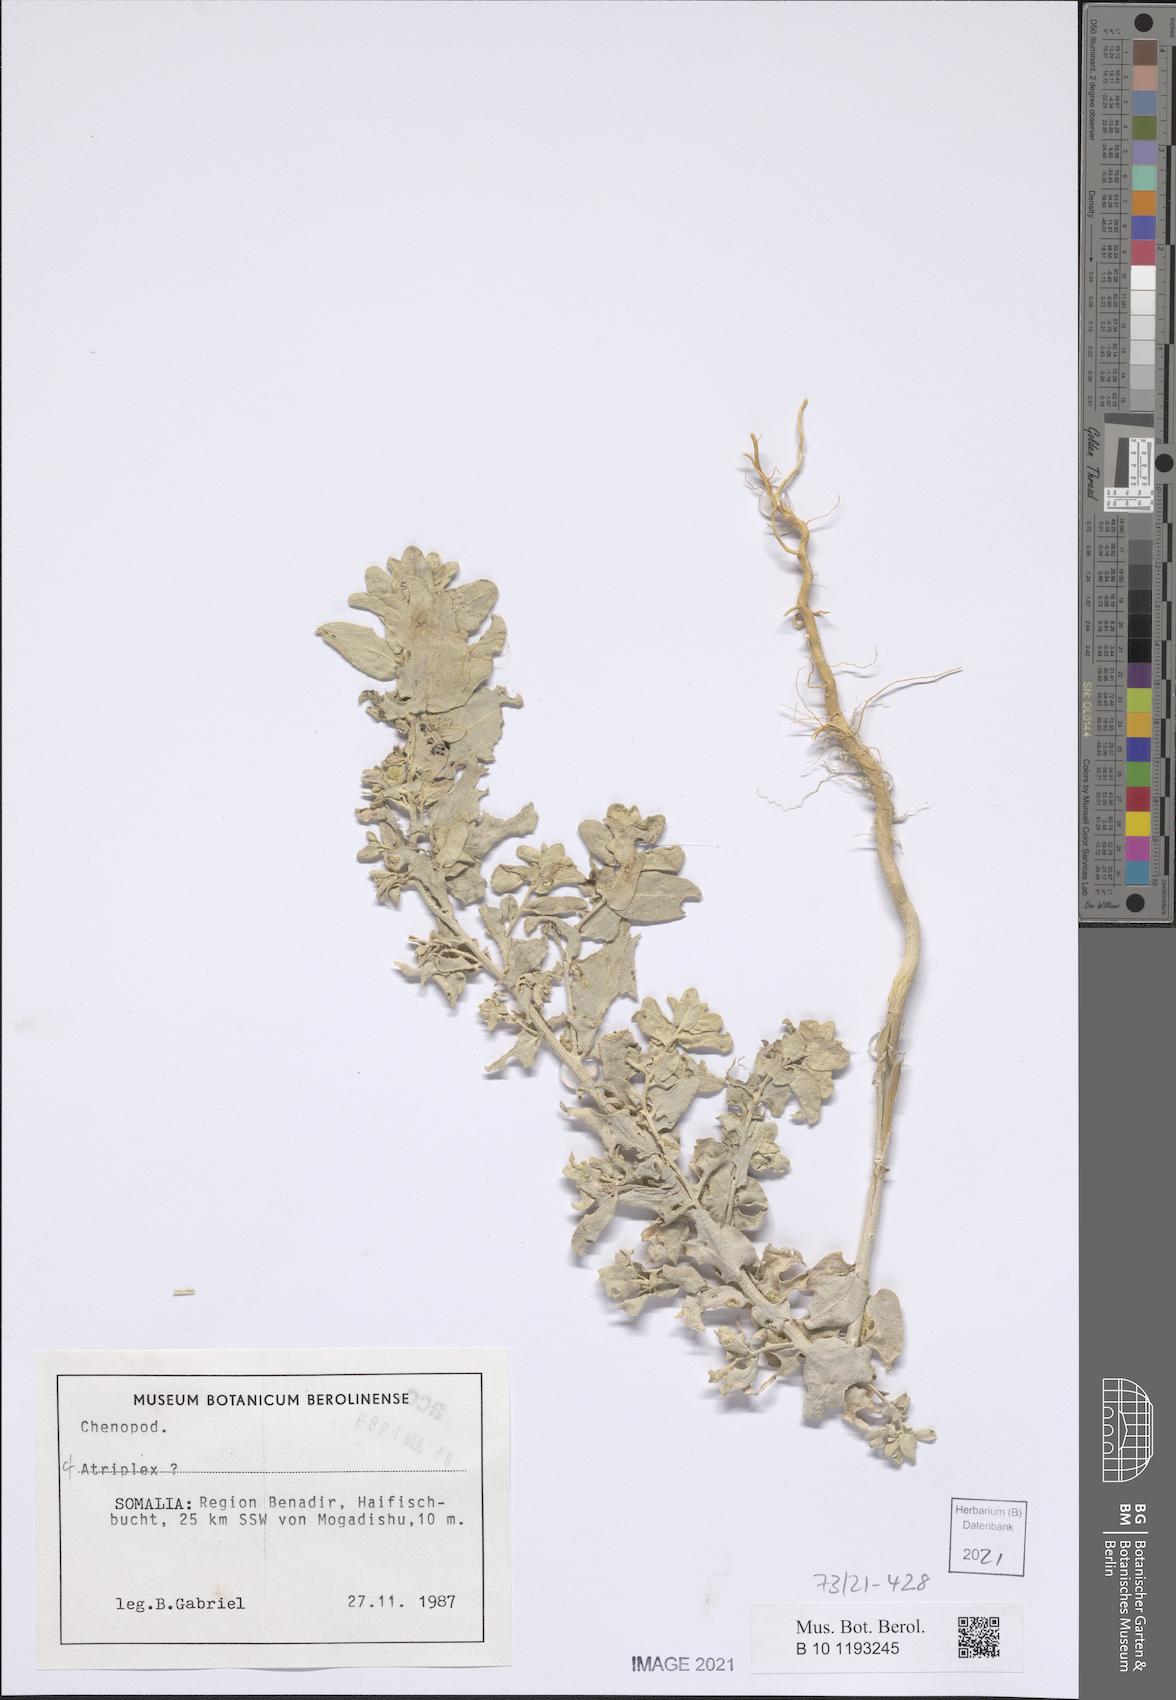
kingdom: Plantae
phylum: Tracheophyta
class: Magnoliopsida
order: Caryophyllales
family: Amaranthaceae
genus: Atriplex
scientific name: Atriplex
